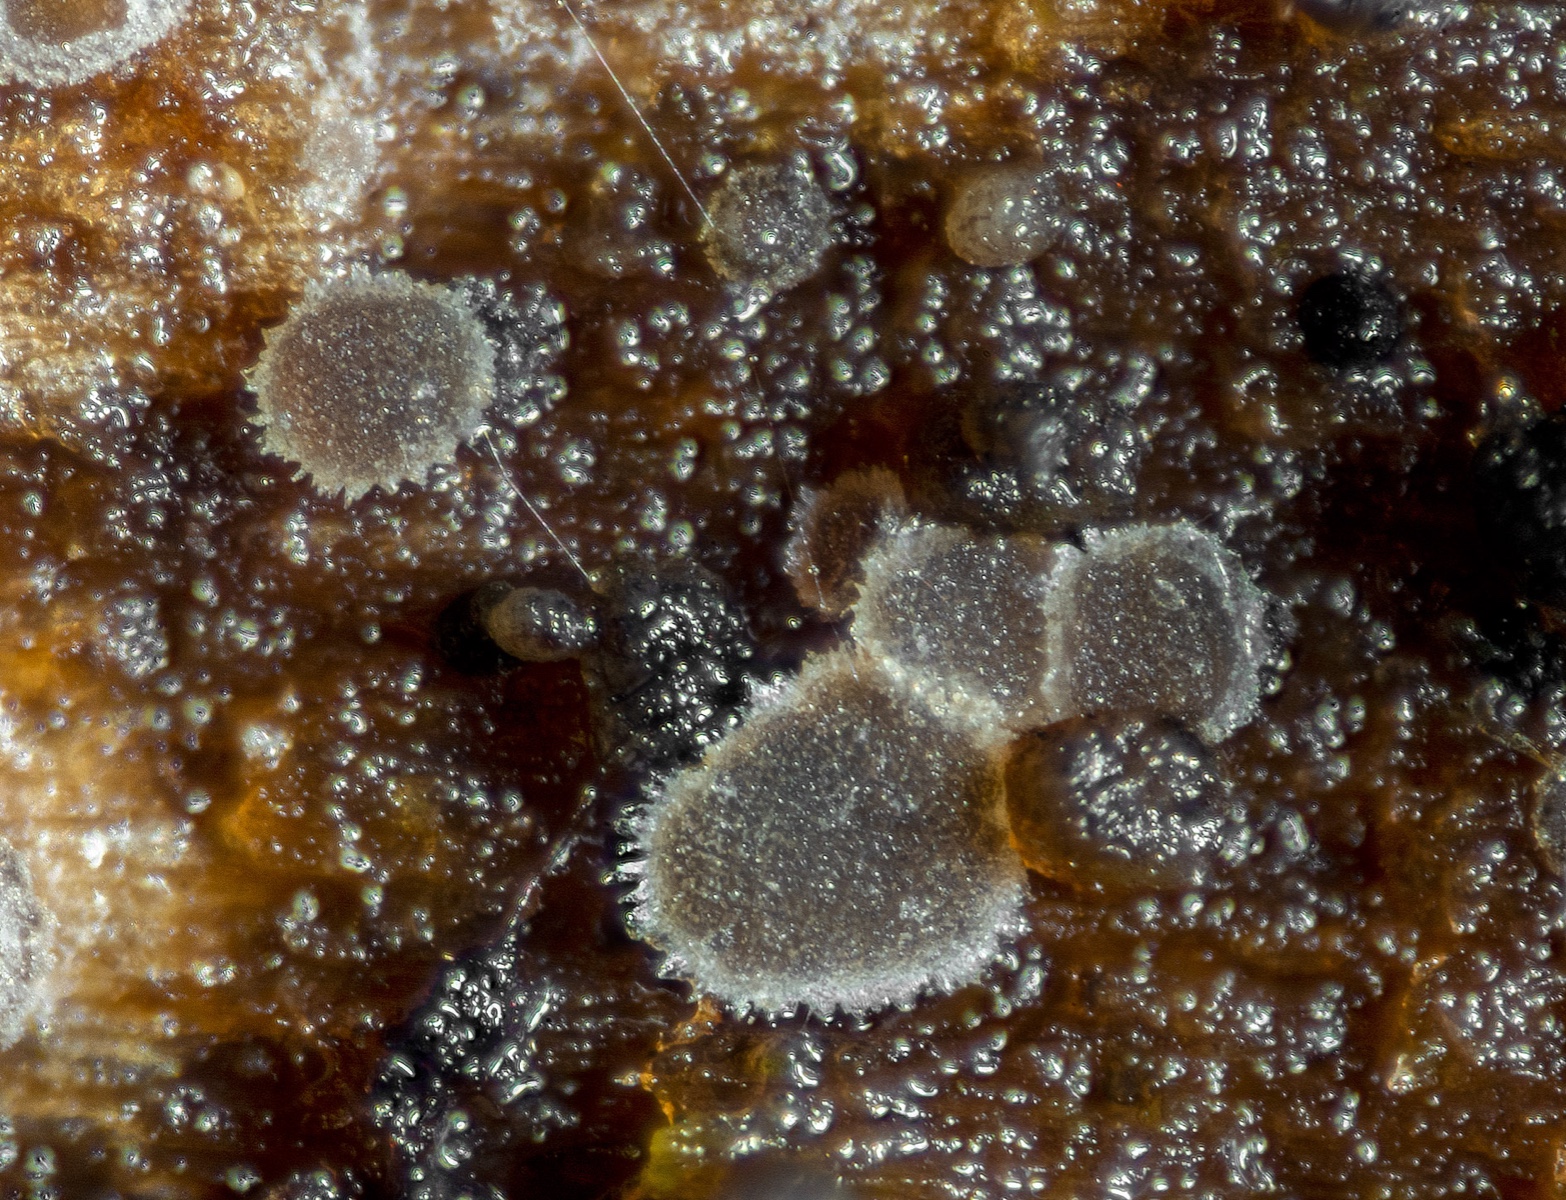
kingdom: Fungi
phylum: Ascomycota
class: Leotiomycetes
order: Helotiales
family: Hyaloscyphaceae
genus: Protounguicularia
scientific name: Protounguicularia transiens
